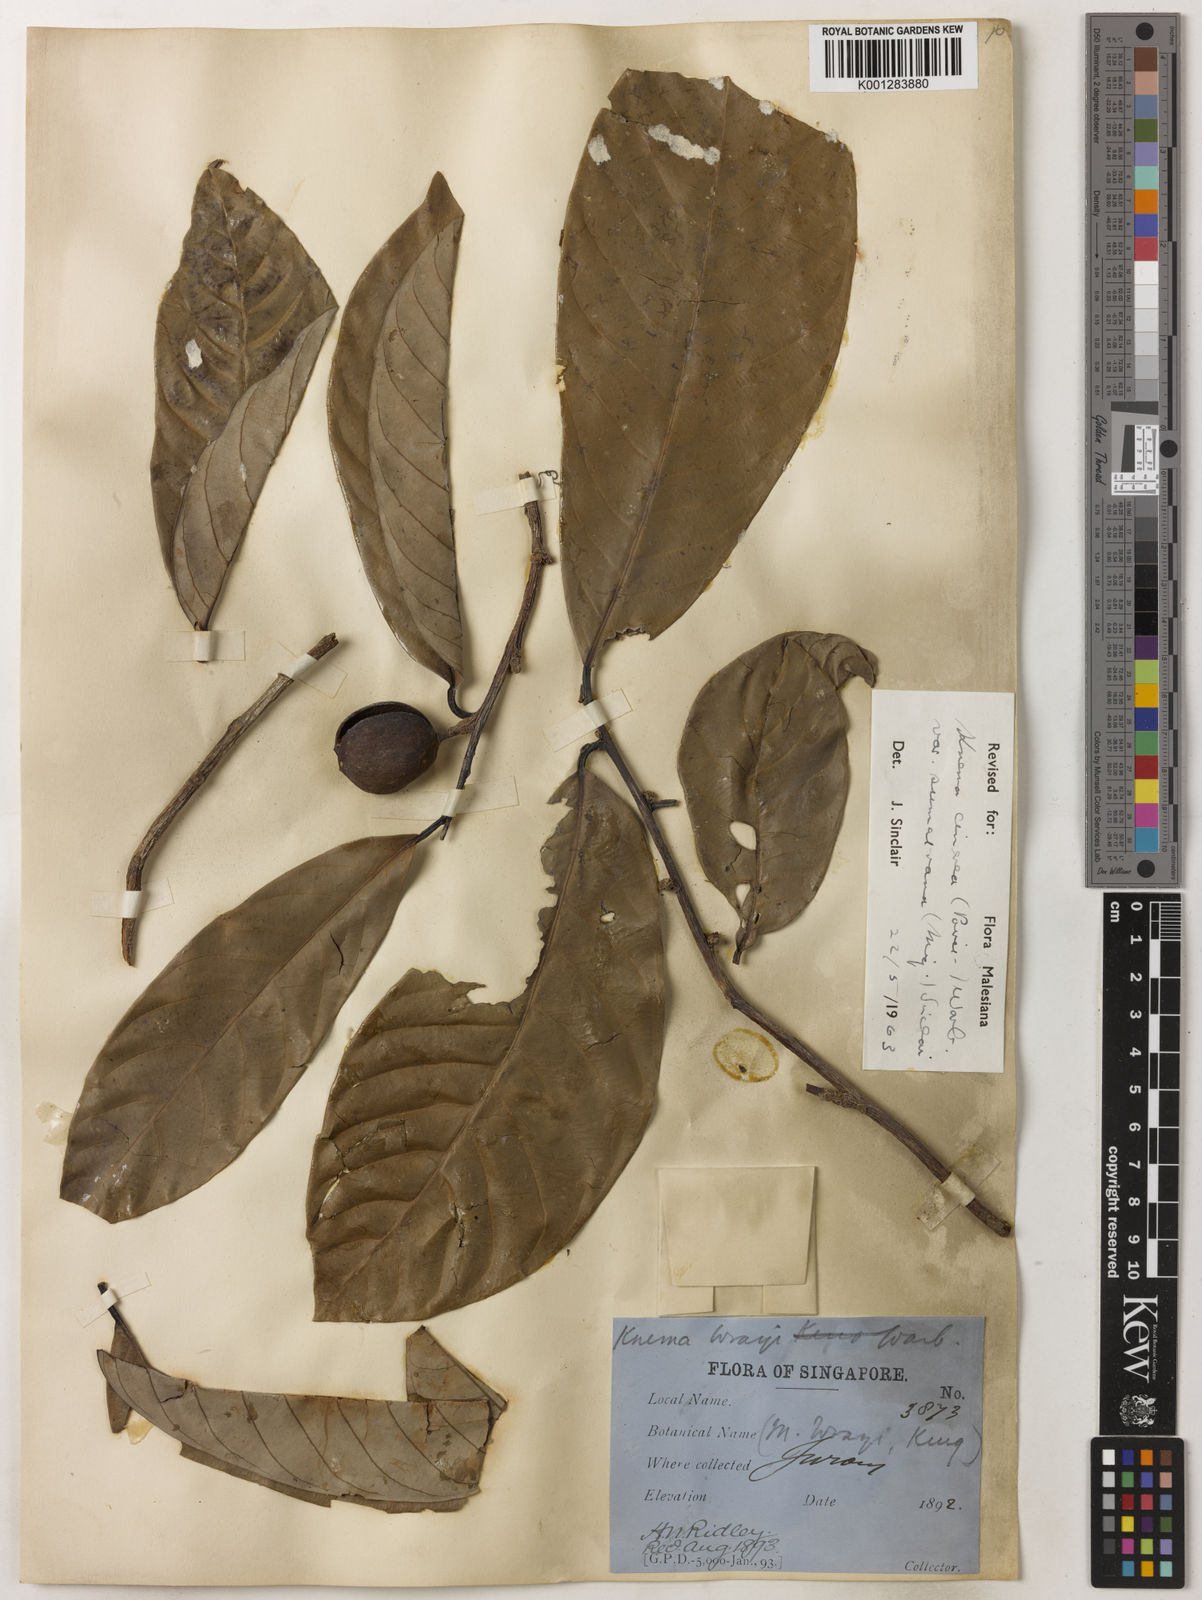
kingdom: Plantae
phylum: Tracheophyta
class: Magnoliopsida
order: Magnoliales
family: Myristicaceae
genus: Knema
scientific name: Knema
